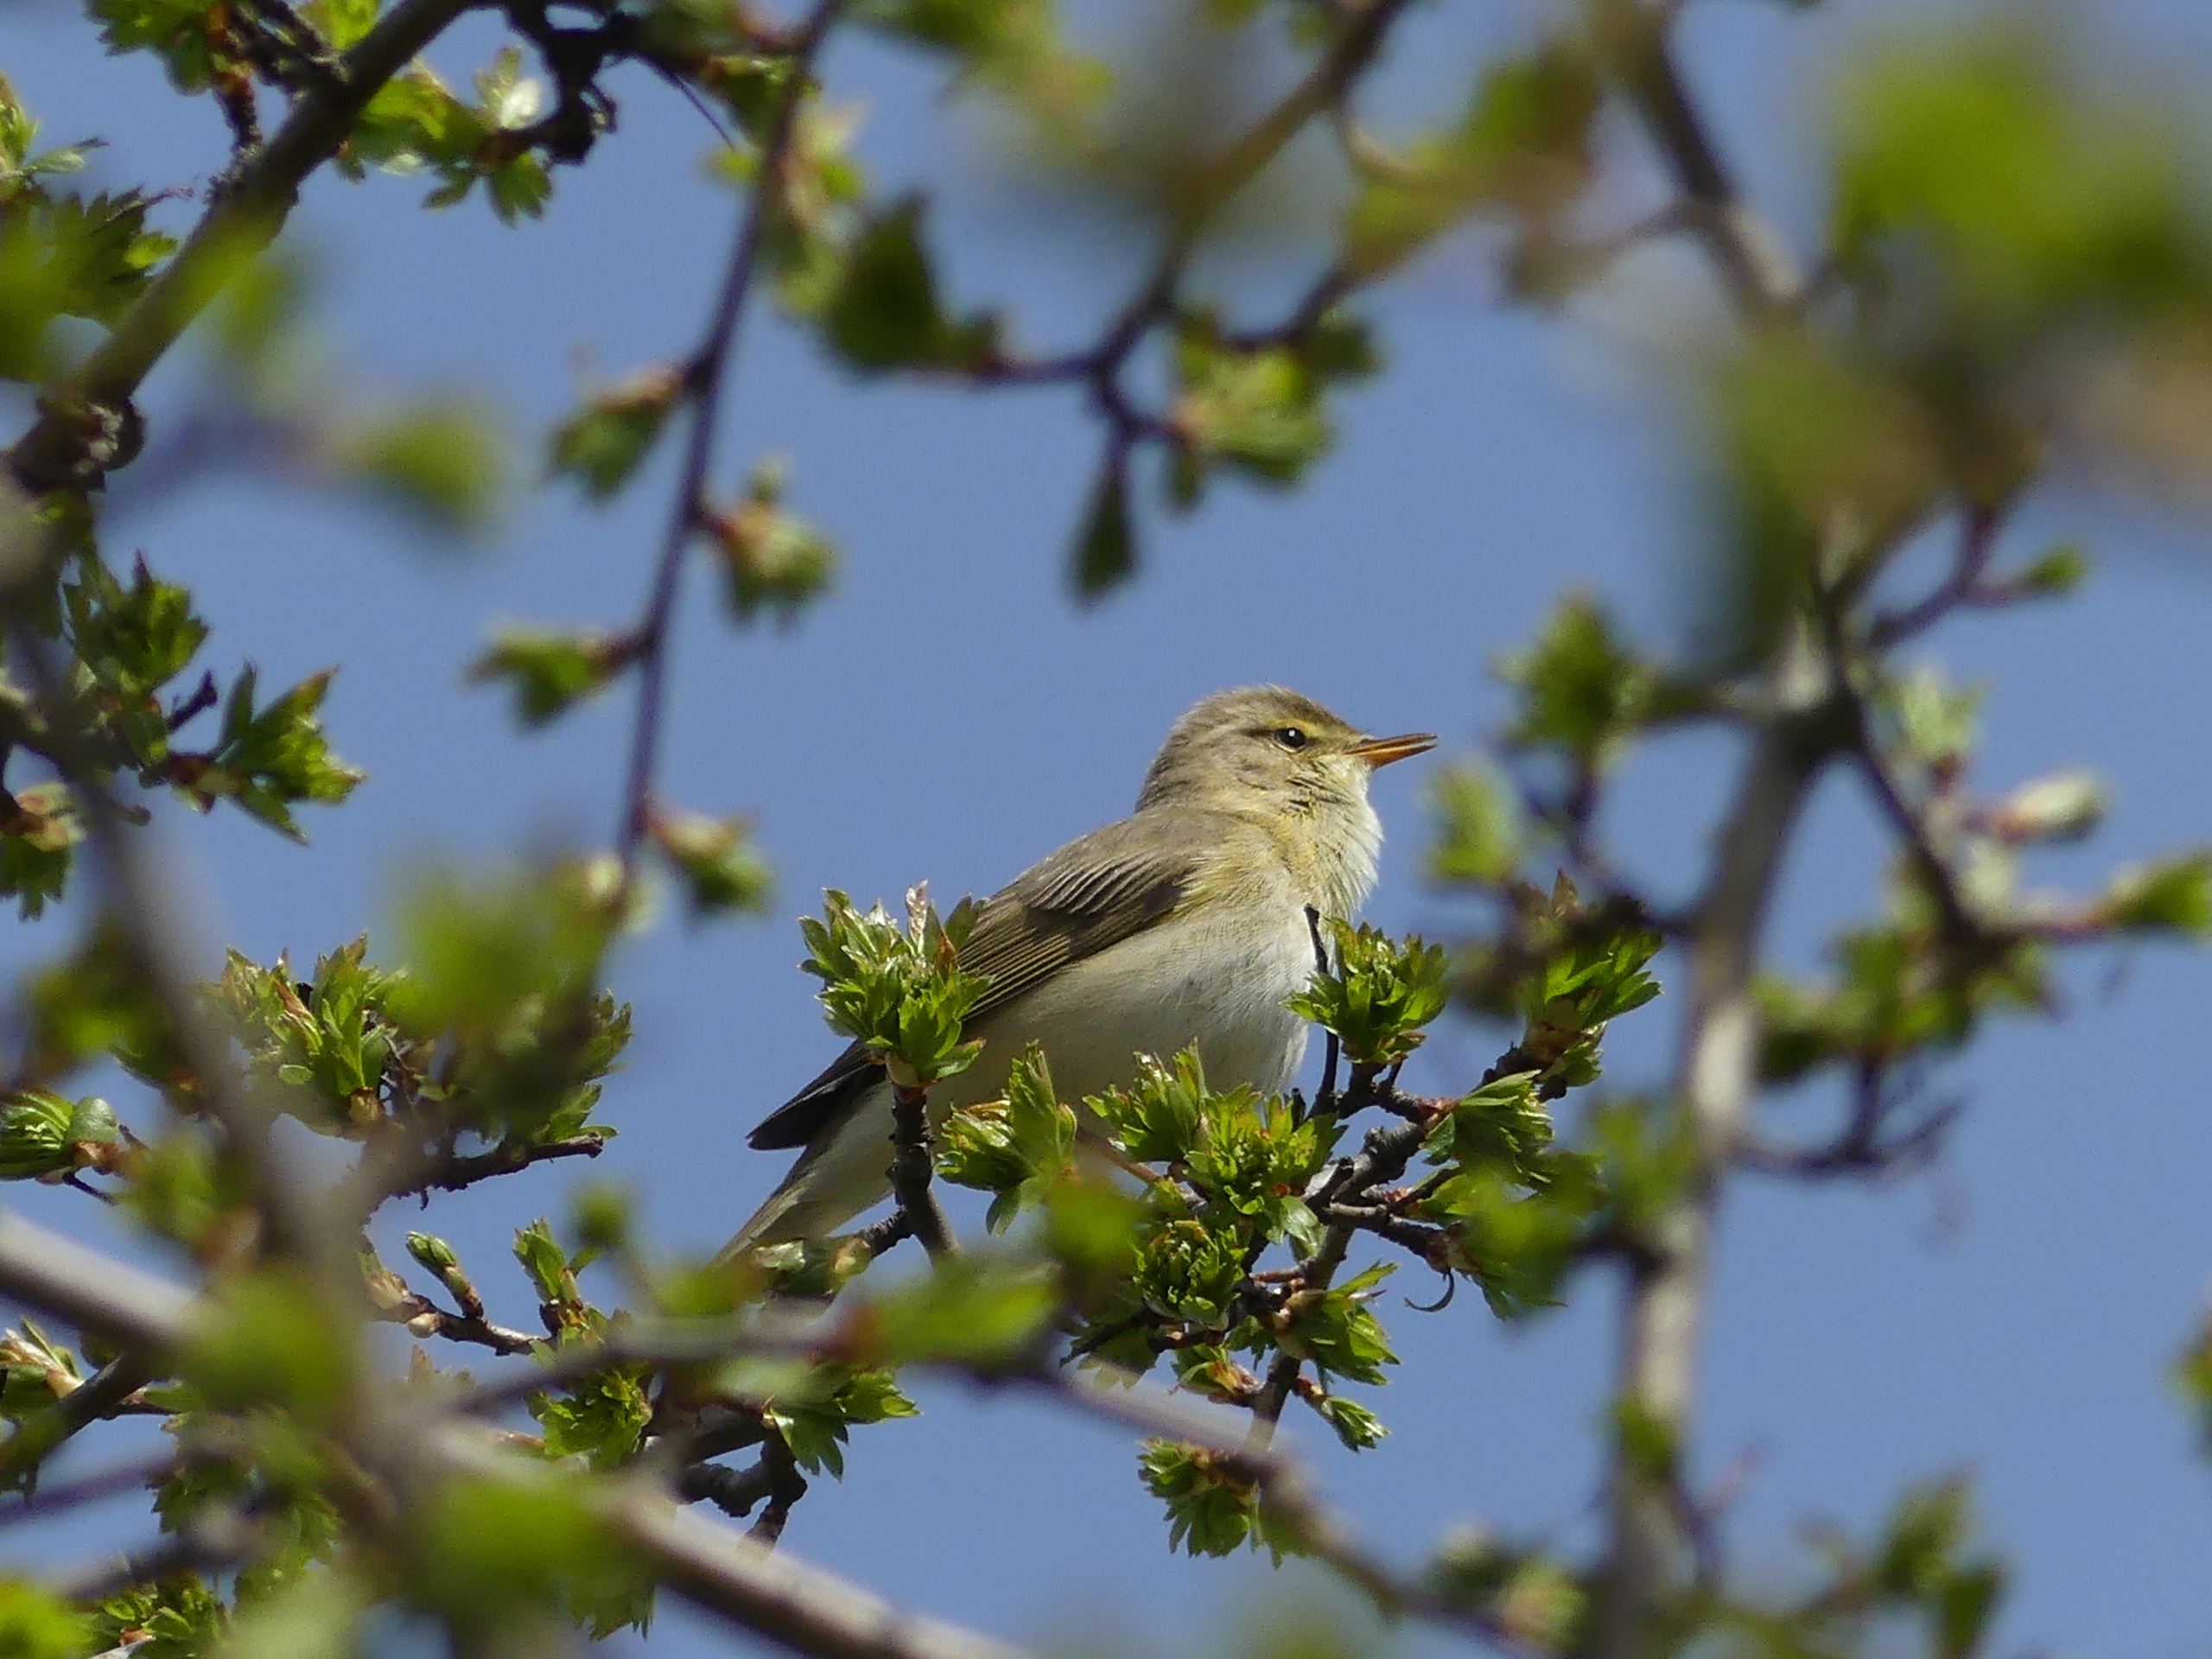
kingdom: Animalia
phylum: Chordata
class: Aves
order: Passeriformes
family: Phylloscopidae
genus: Phylloscopus
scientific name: Phylloscopus trochilus
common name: Løvsanger
